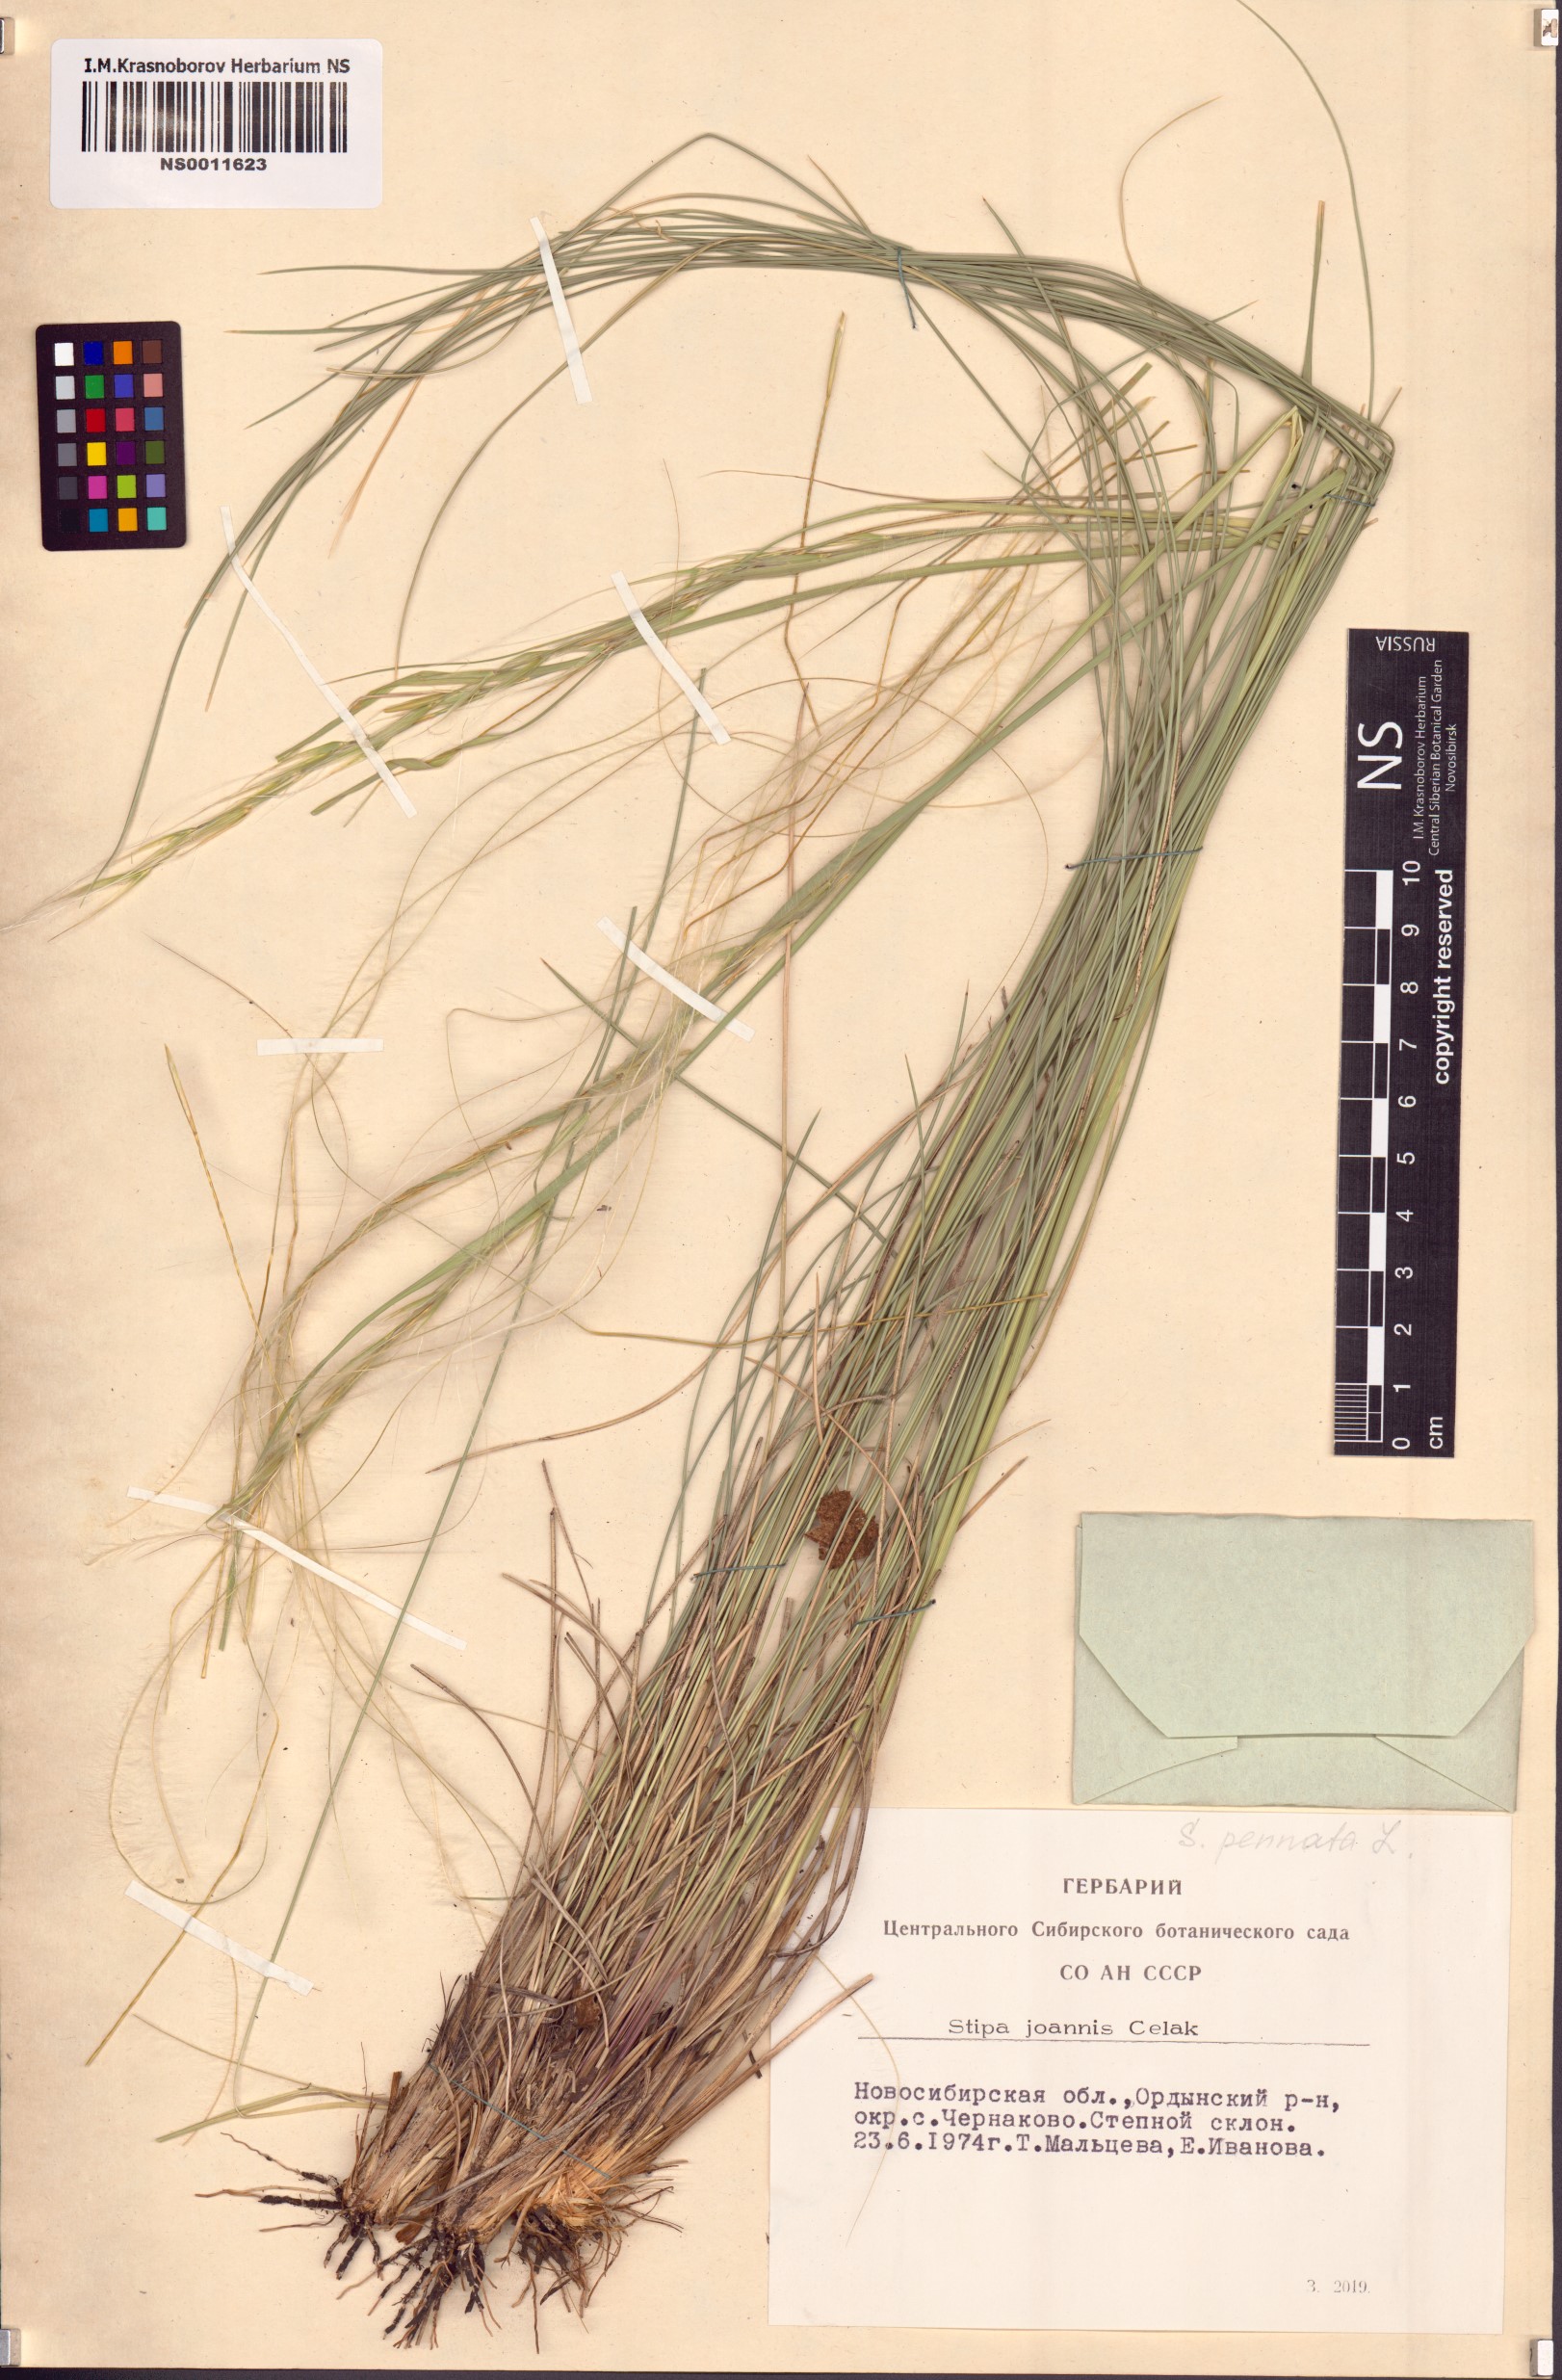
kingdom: Plantae
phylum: Tracheophyta
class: Liliopsida
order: Poales
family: Poaceae
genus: Stipa
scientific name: Stipa pennata
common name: European feather grass
